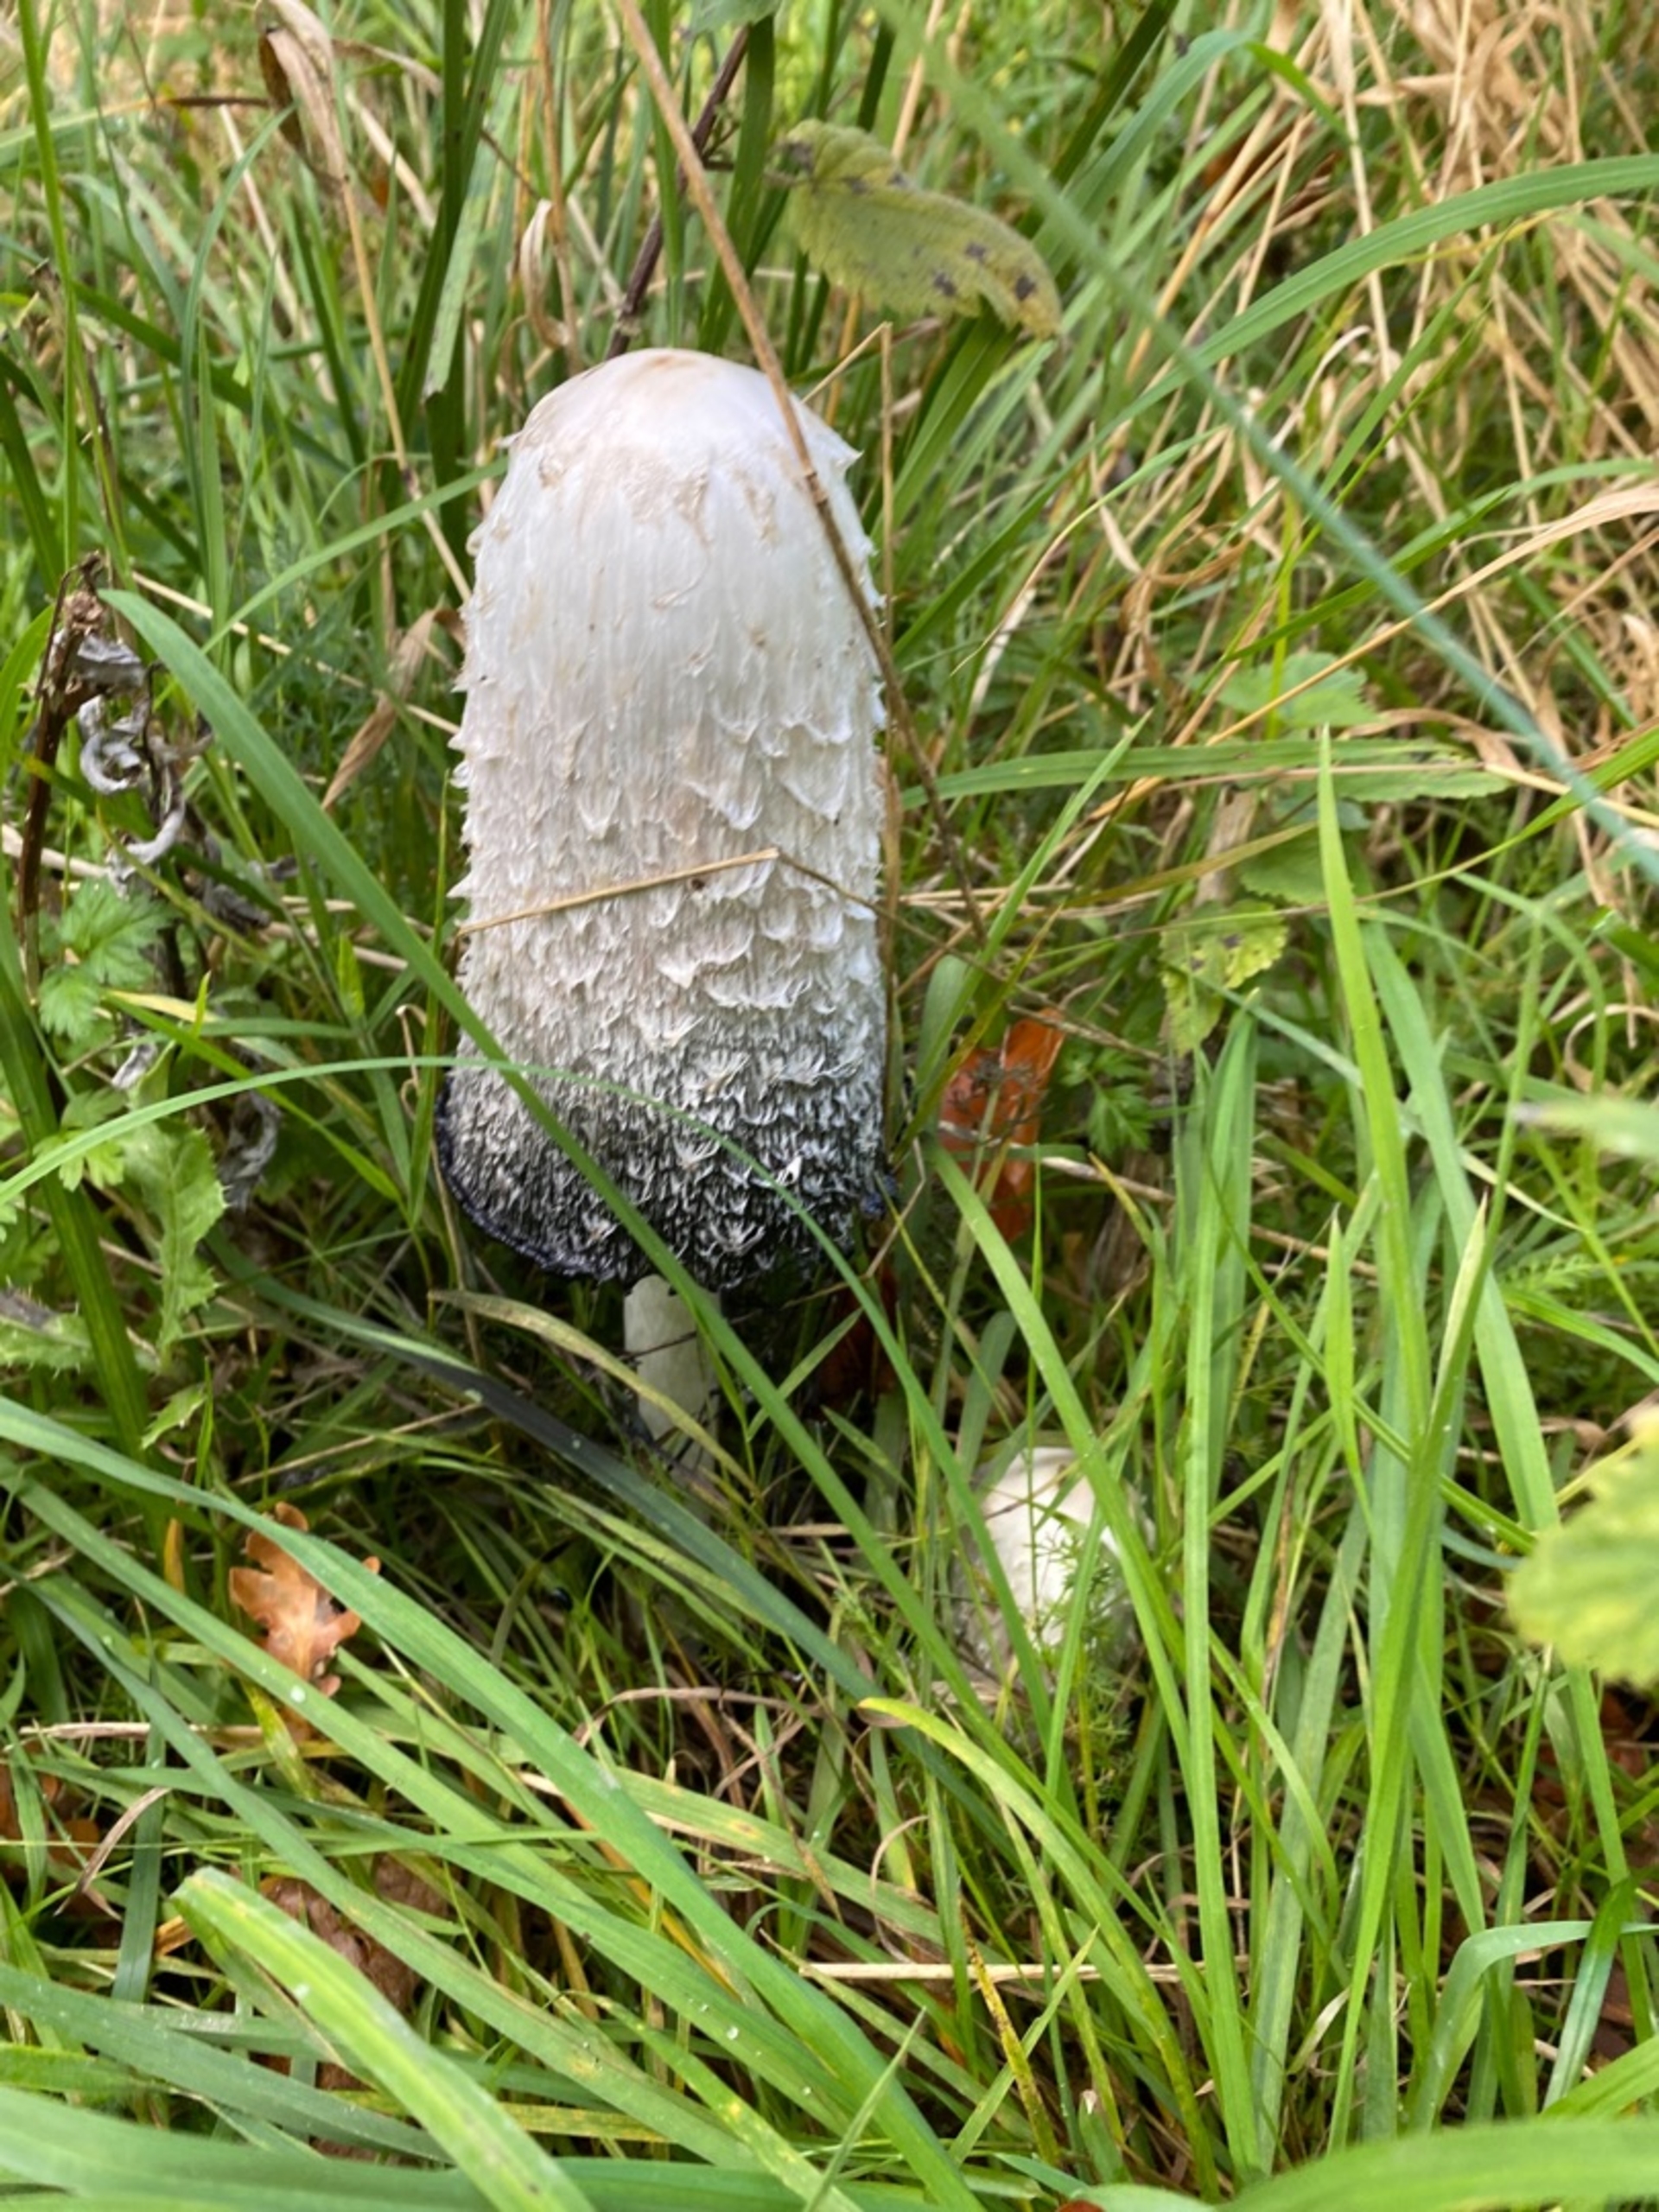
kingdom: Fungi
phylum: Basidiomycota
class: Agaricomycetes
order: Agaricales
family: Agaricaceae
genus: Coprinus
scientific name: Coprinus comatus
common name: Stor parykhat
